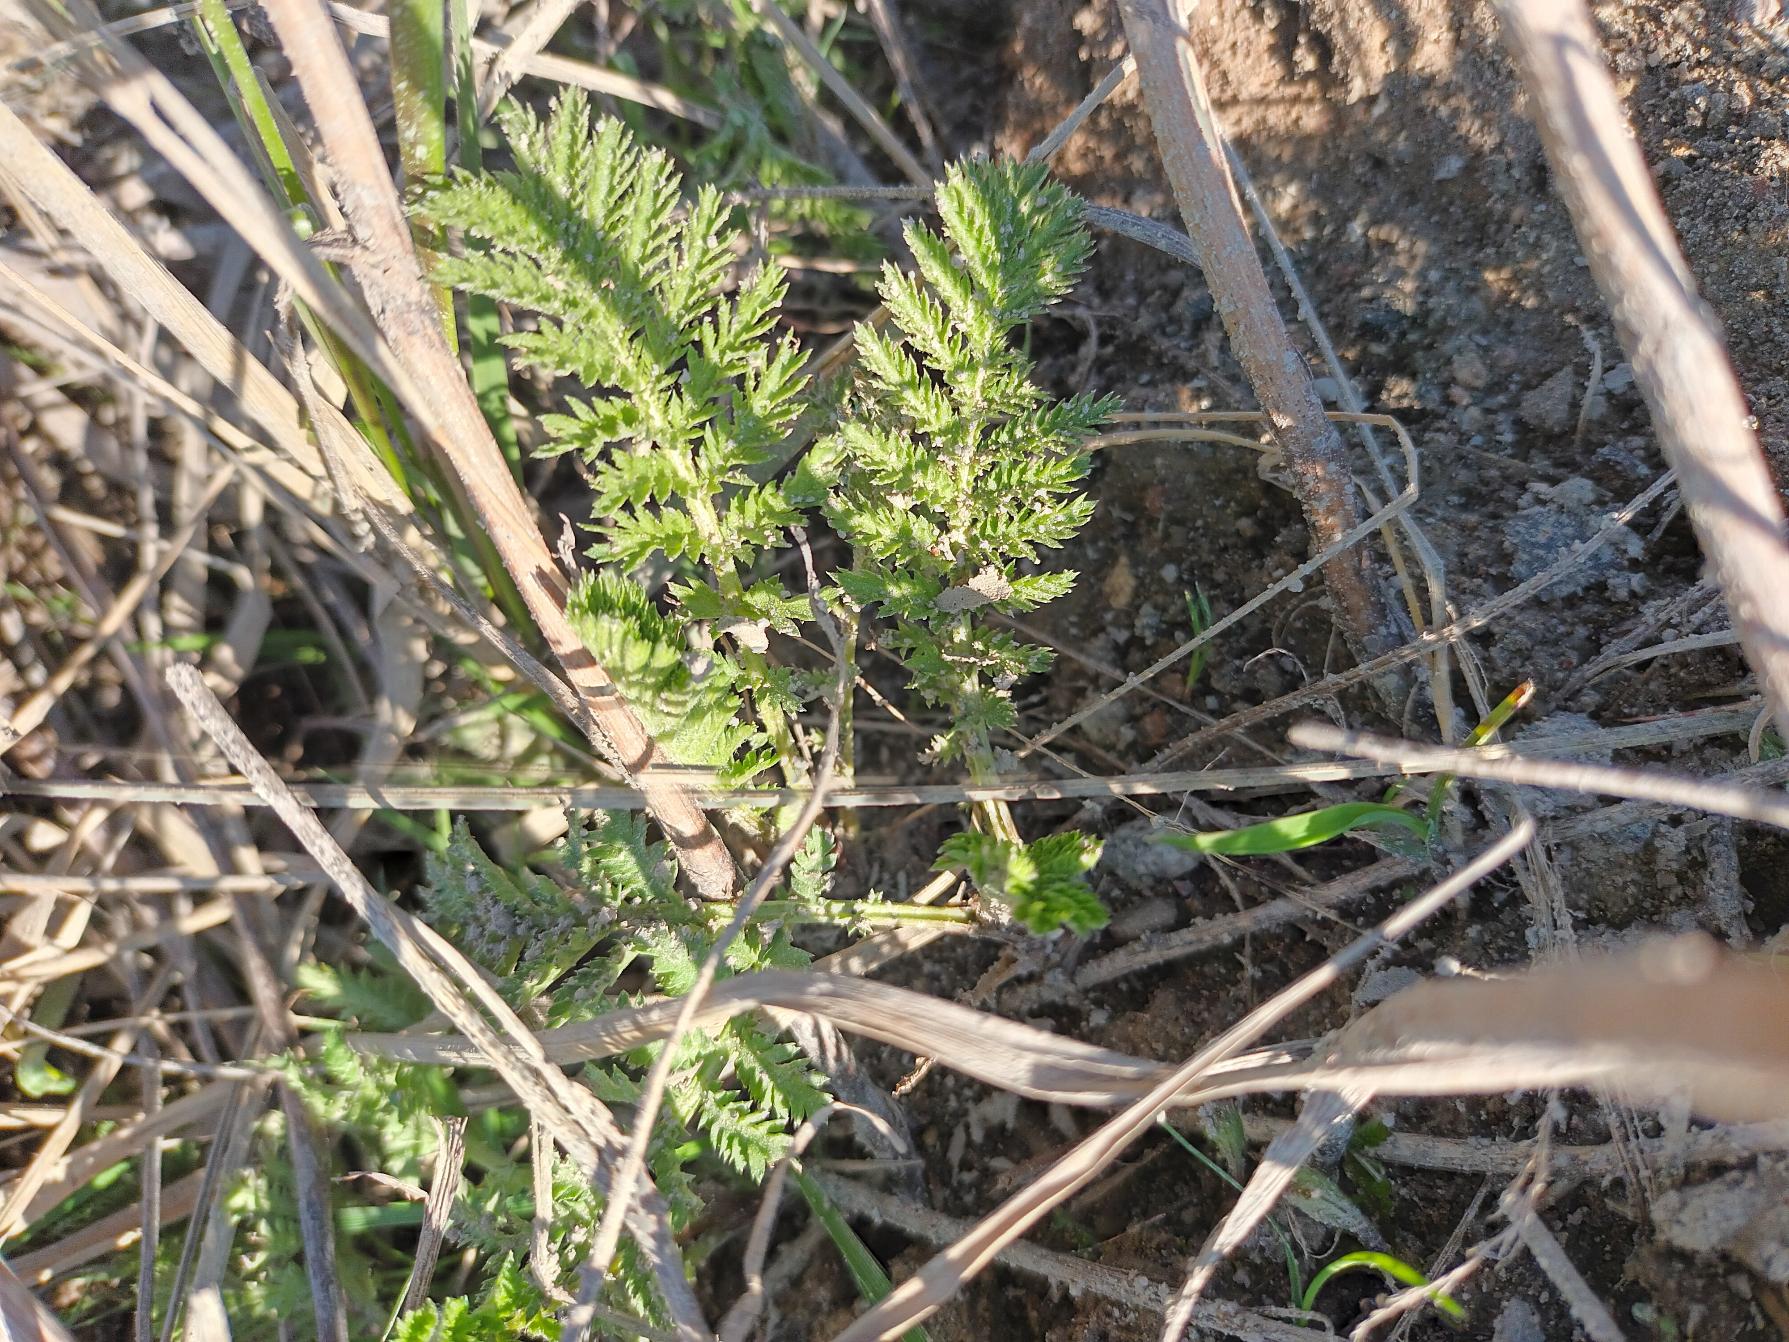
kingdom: Plantae
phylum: Tracheophyta
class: Magnoliopsida
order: Asterales
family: Asteraceae
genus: Tanacetum
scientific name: Tanacetum vulgare
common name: Rejnfan
